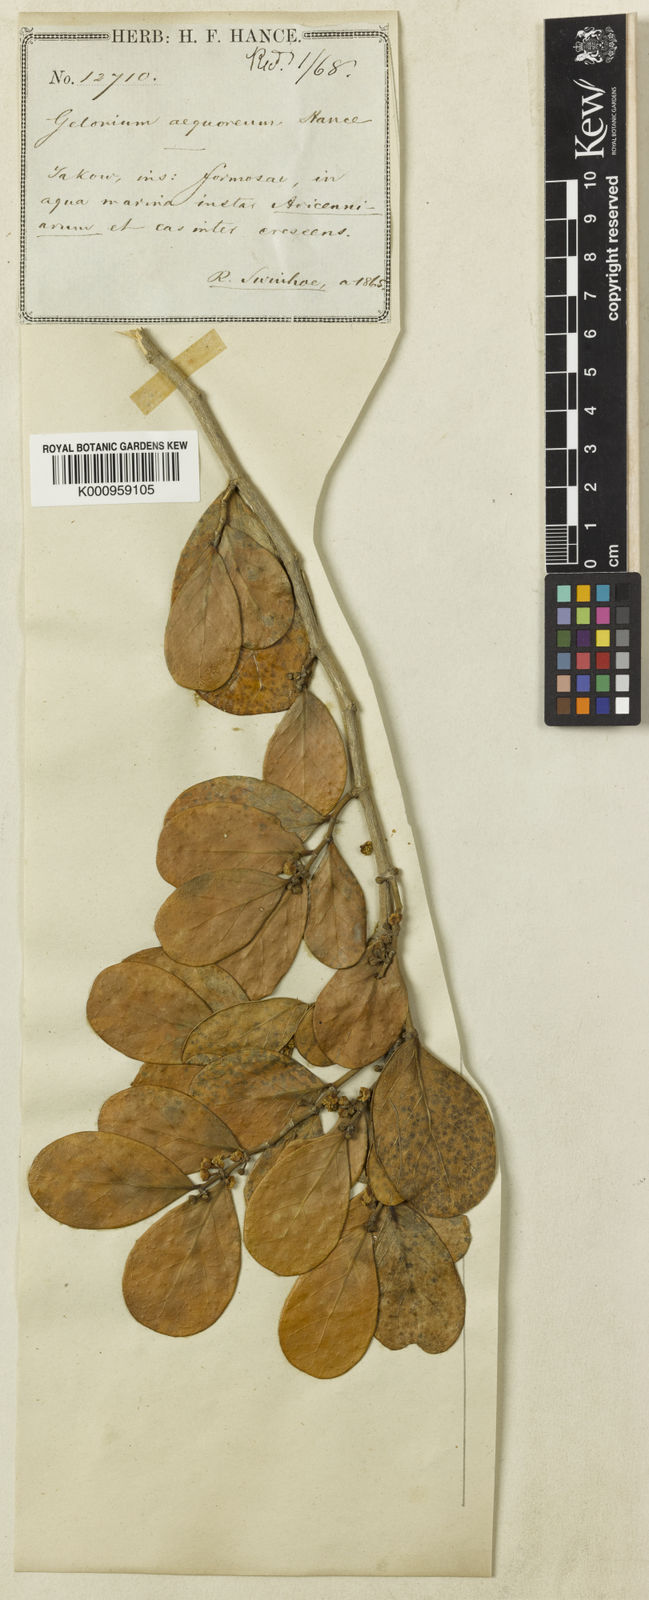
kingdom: Plantae
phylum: Tracheophyta
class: Magnoliopsida
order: Malpighiales
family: Euphorbiaceae
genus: Suregada
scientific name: Suregada aequorea
